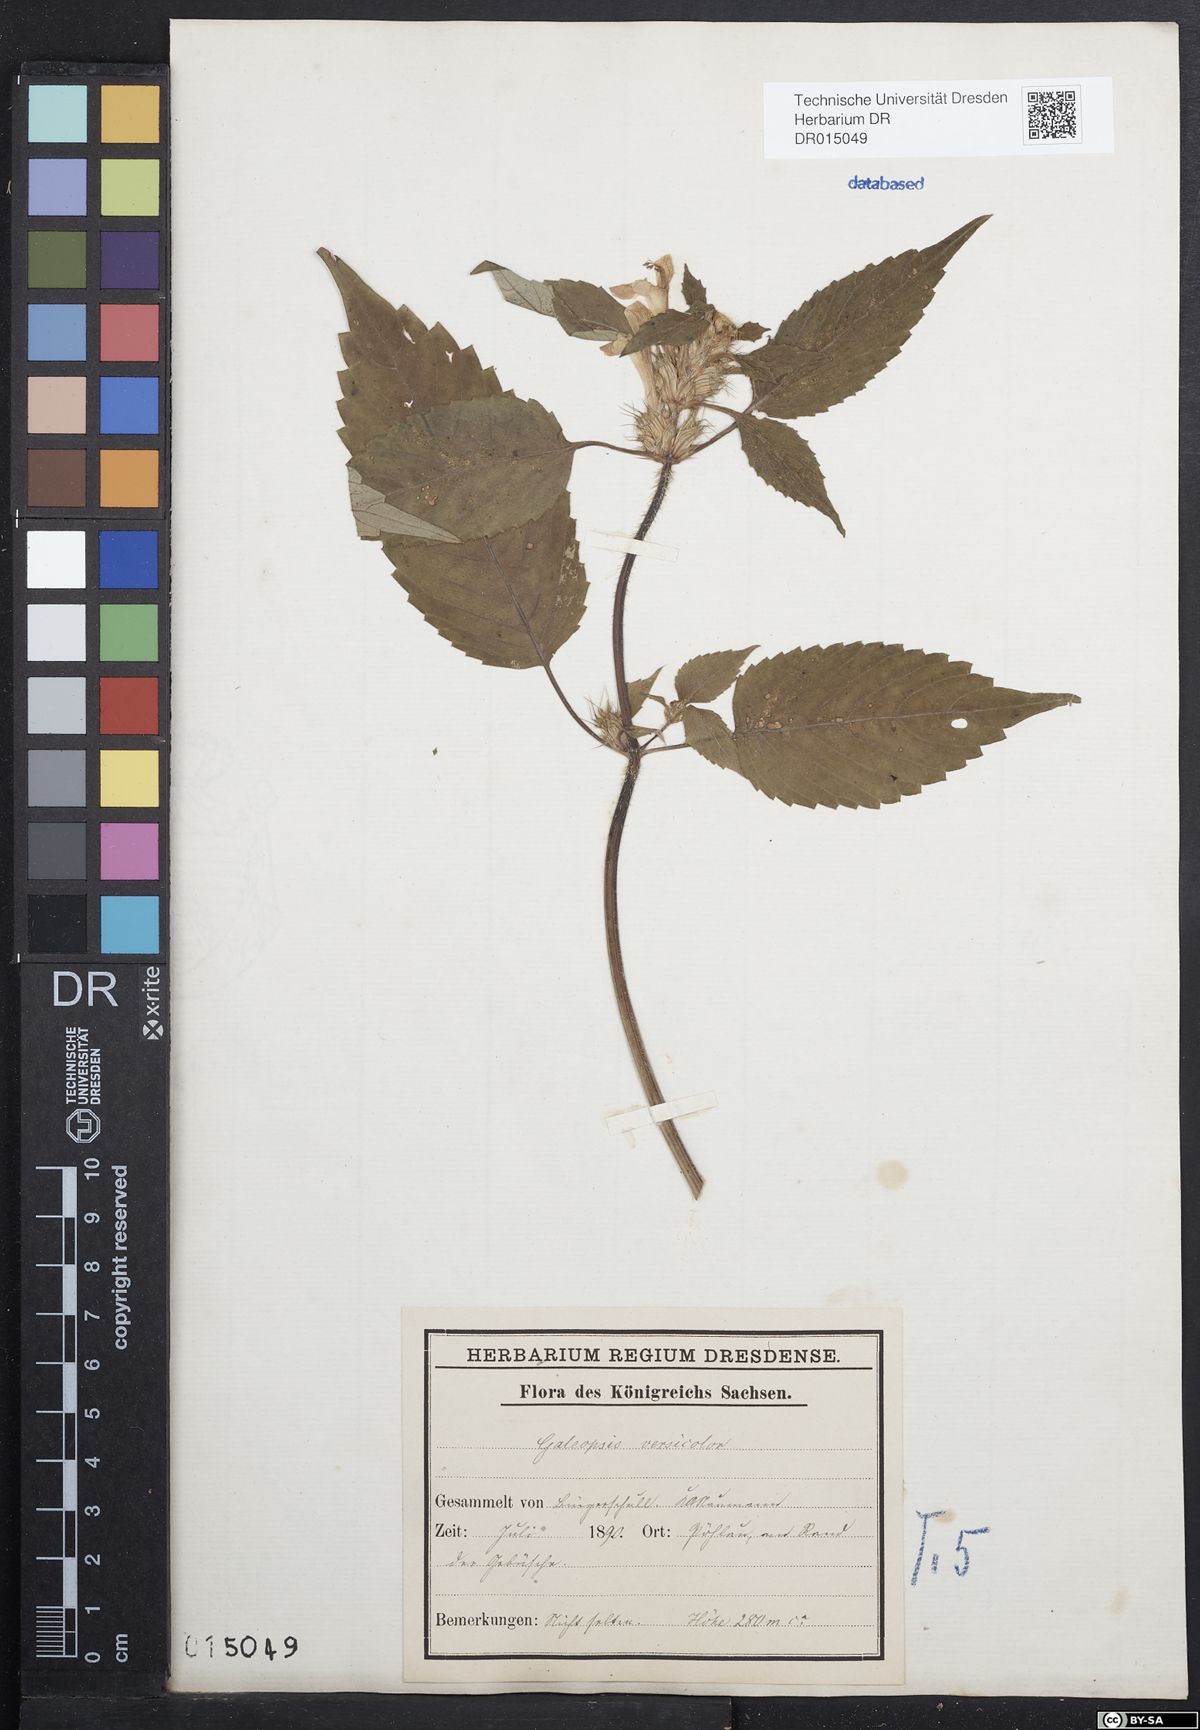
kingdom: Plantae
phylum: Tracheophyta
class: Magnoliopsida
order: Lamiales
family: Lamiaceae
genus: Galeopsis
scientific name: Galeopsis speciosa
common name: Large-flowered hemp-nettle
